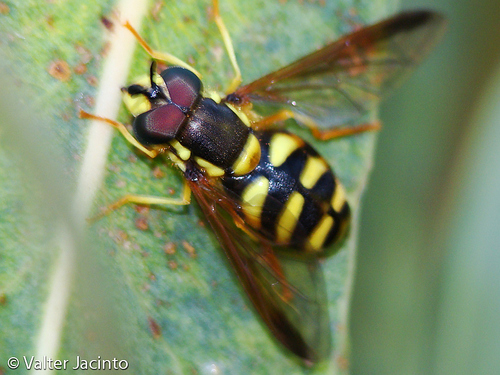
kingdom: Animalia
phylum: Arthropoda
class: Insecta
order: Diptera
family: Syrphidae
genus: Chrysotoxum
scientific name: Chrysotoxum elegans
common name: Zipperback
